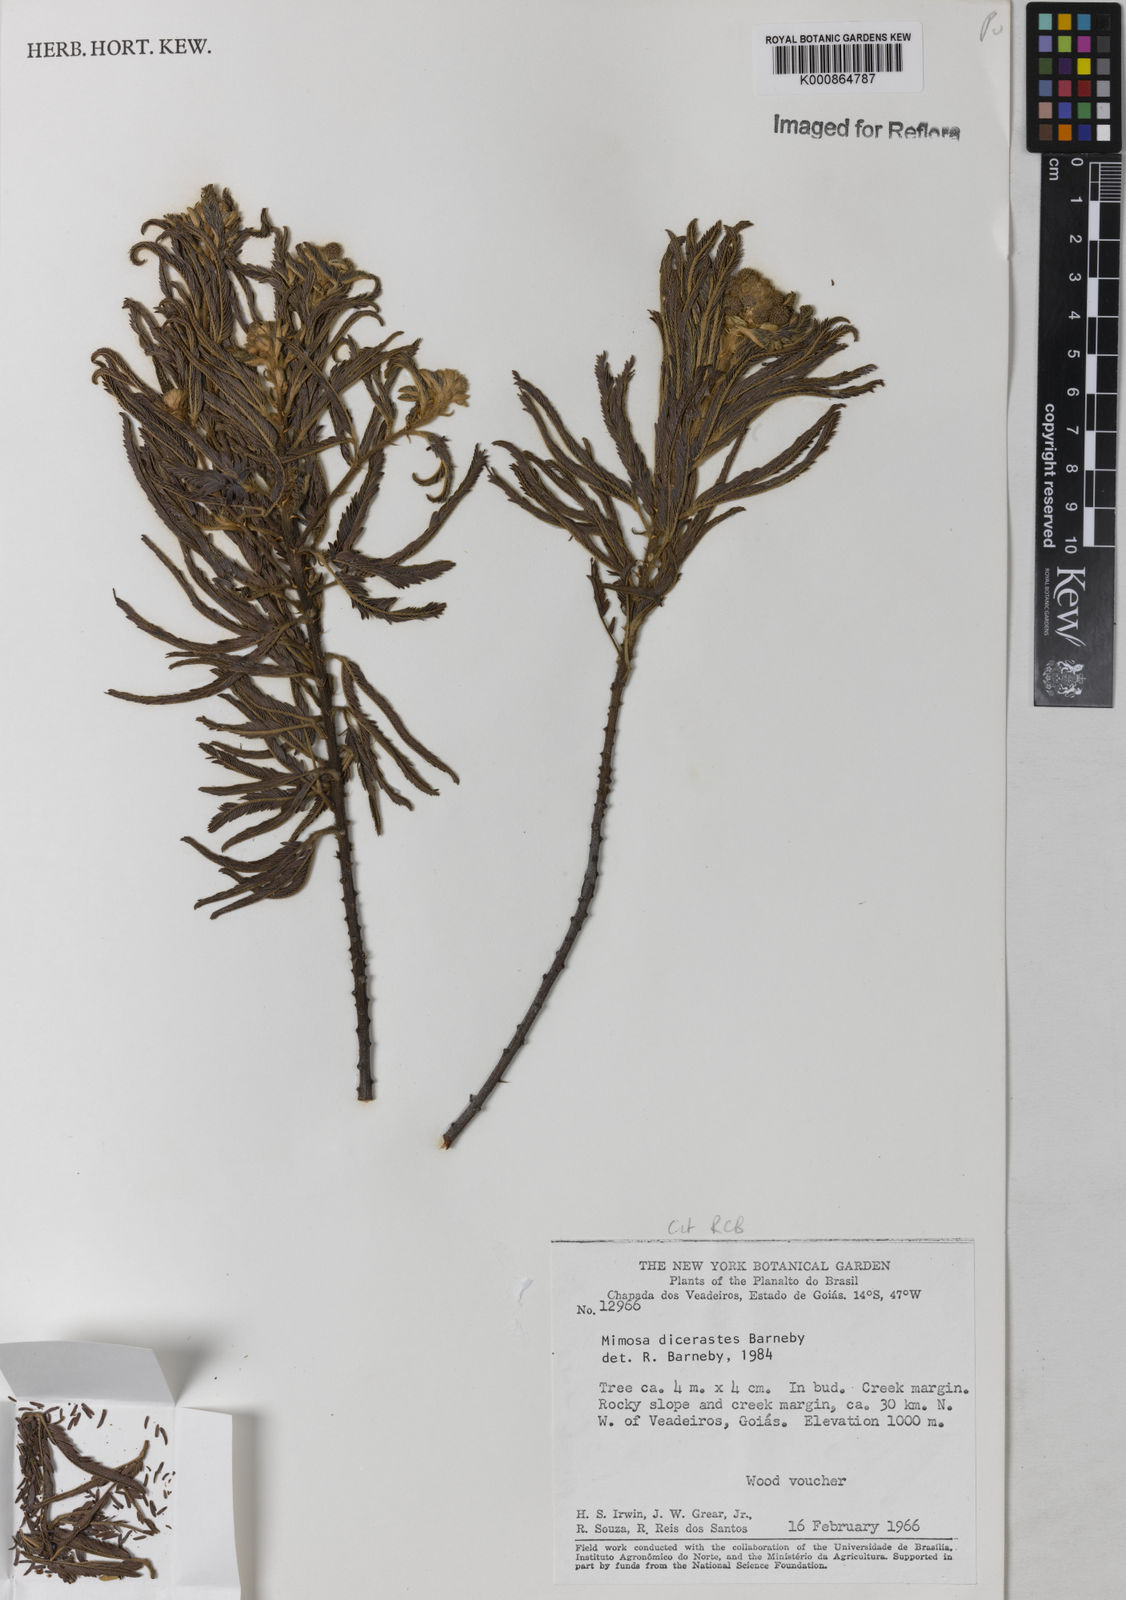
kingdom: Plantae
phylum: Tracheophyta
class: Magnoliopsida
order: Fabales
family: Fabaceae
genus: Mimosa
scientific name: Mimosa
